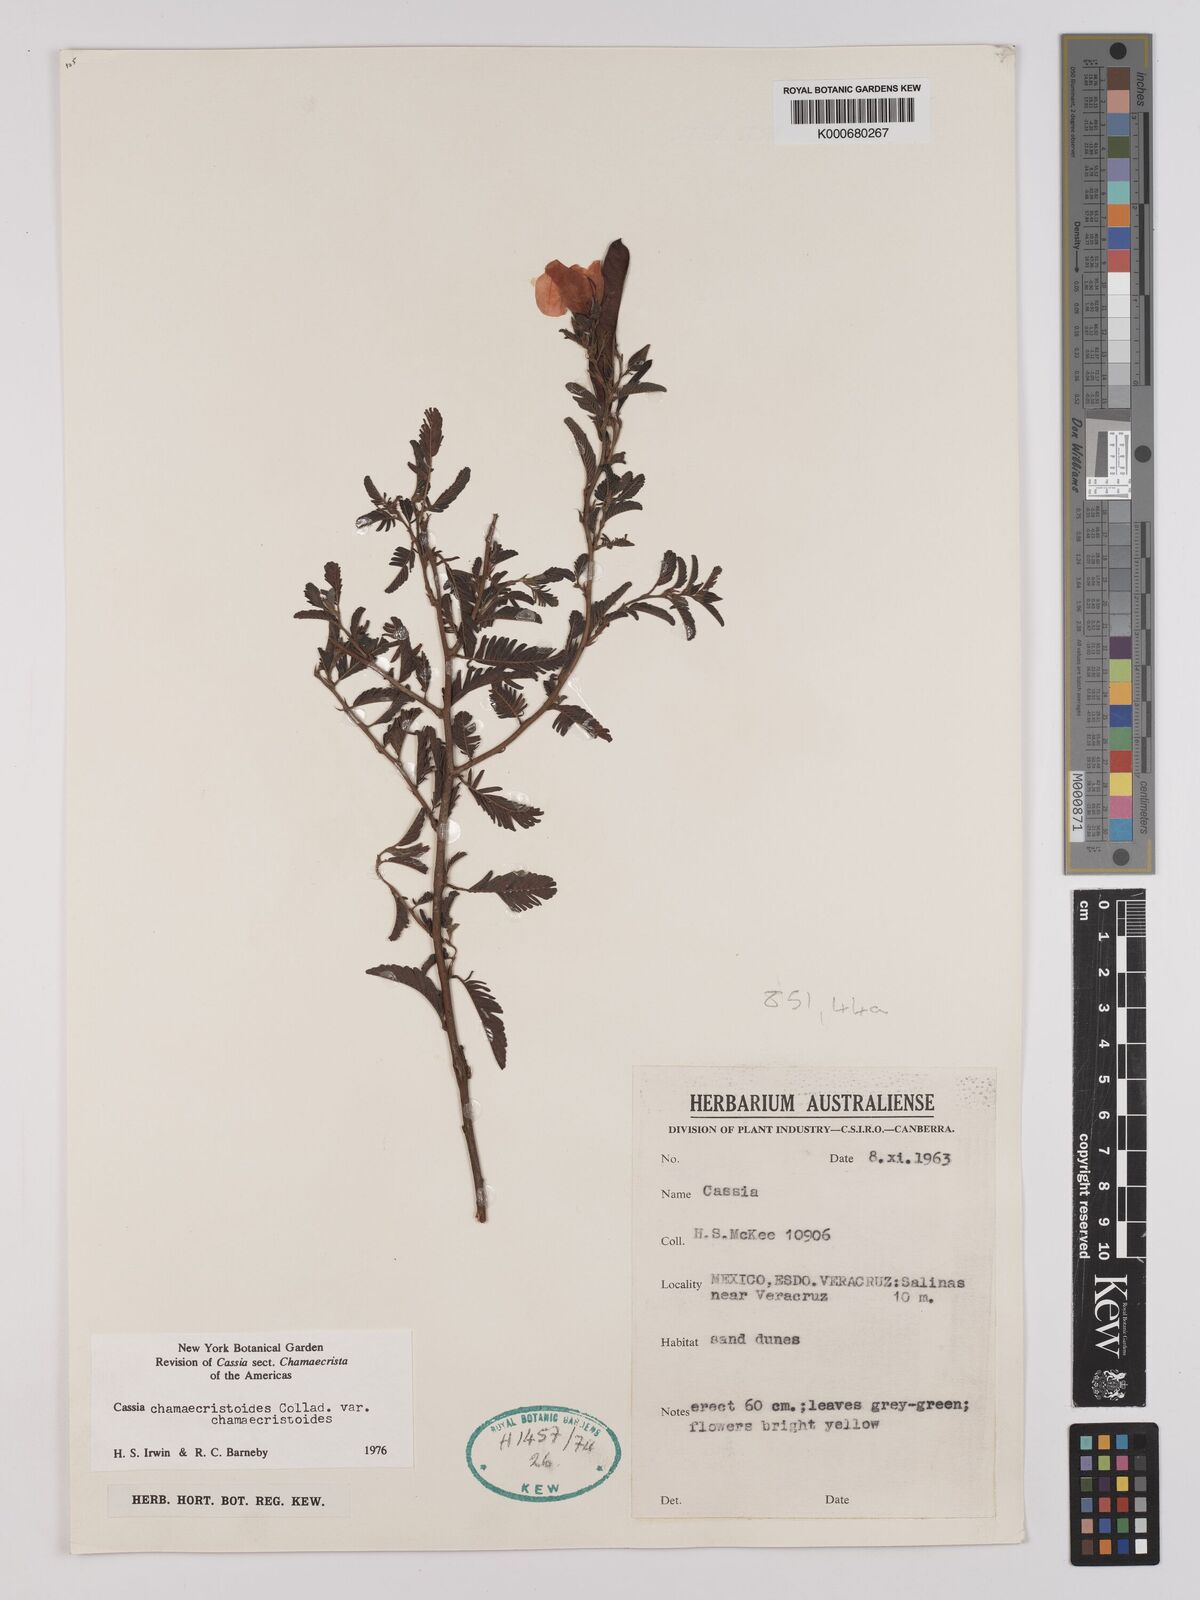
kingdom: Plantae
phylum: Tracheophyta
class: Magnoliopsida
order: Fabales
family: Fabaceae
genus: Chamaecrista
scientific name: Chamaecrista chamaecristoides
